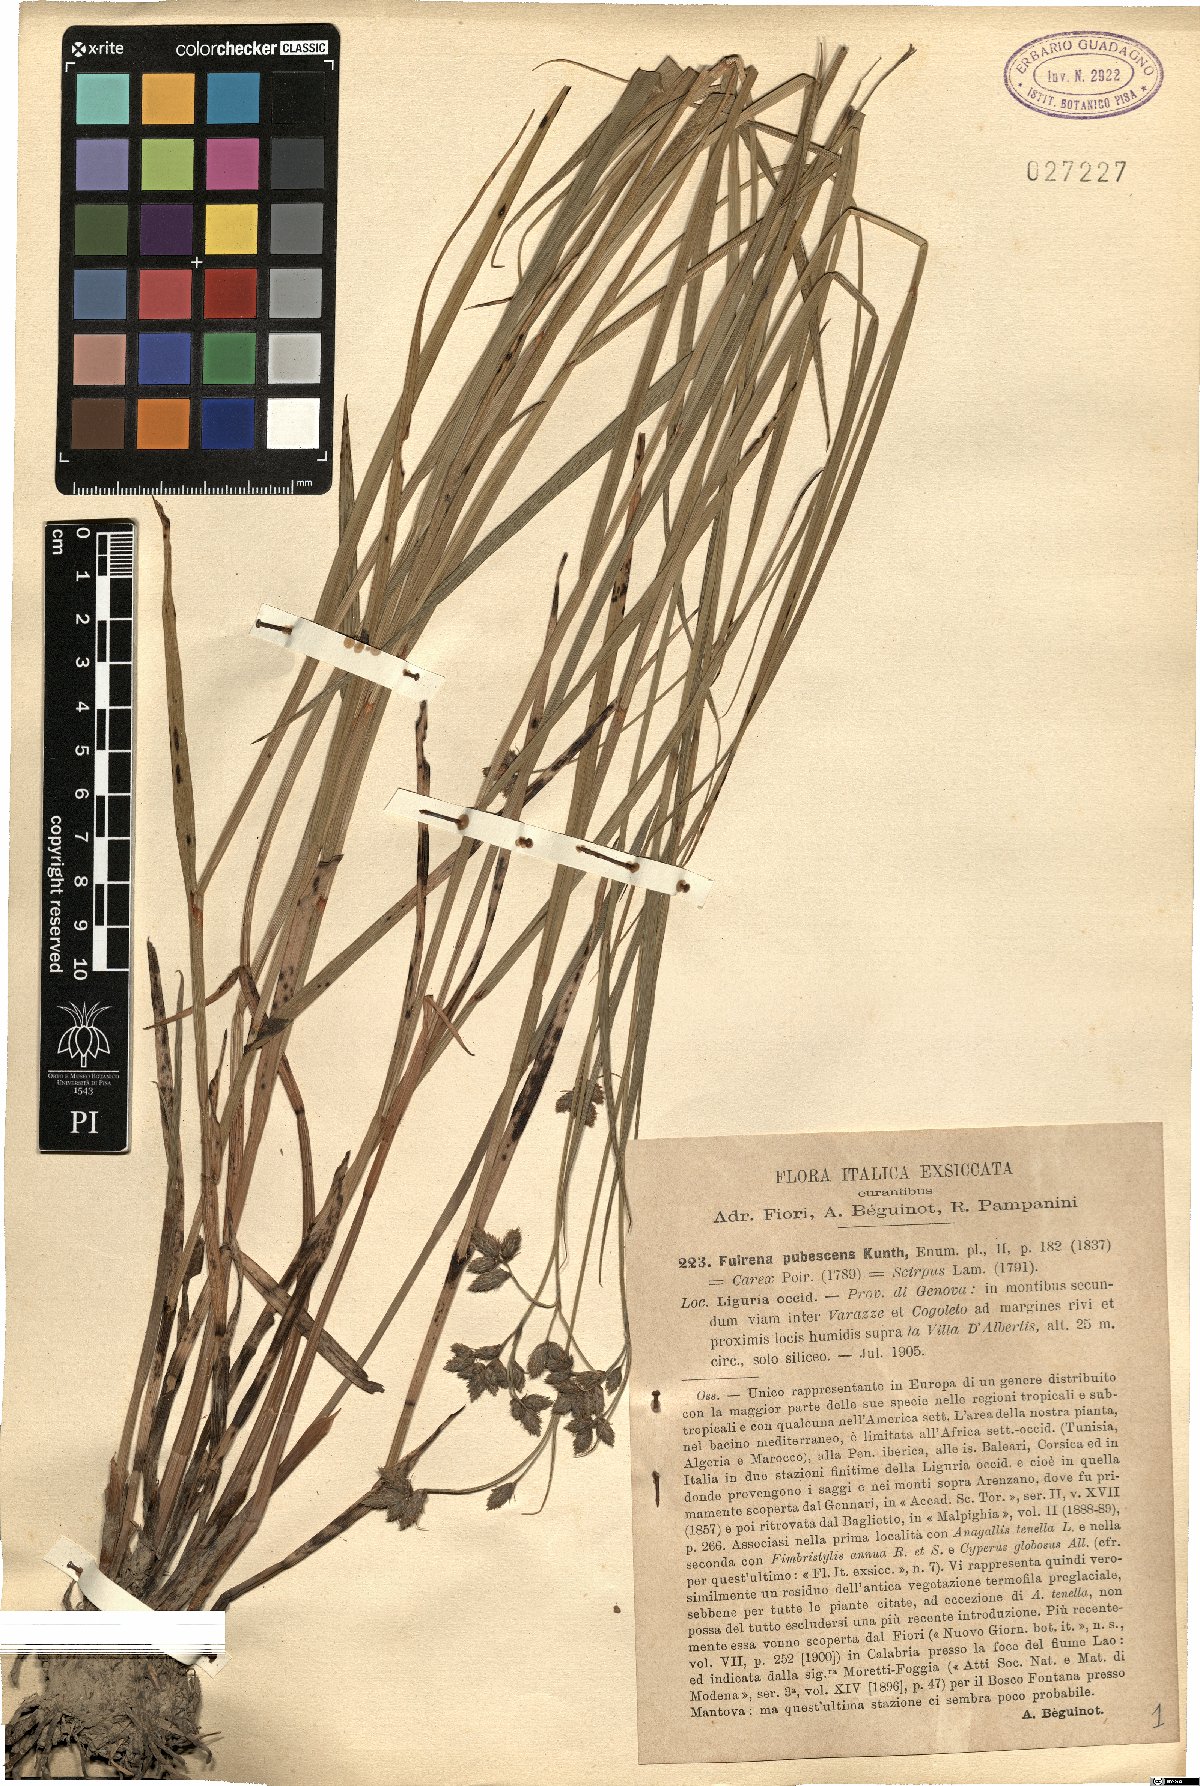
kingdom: Plantae
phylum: Tracheophyta
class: Liliopsida
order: Poales
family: Cyperaceae
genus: Fuirena
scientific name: Fuirena pubescens
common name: Hairy sedge
